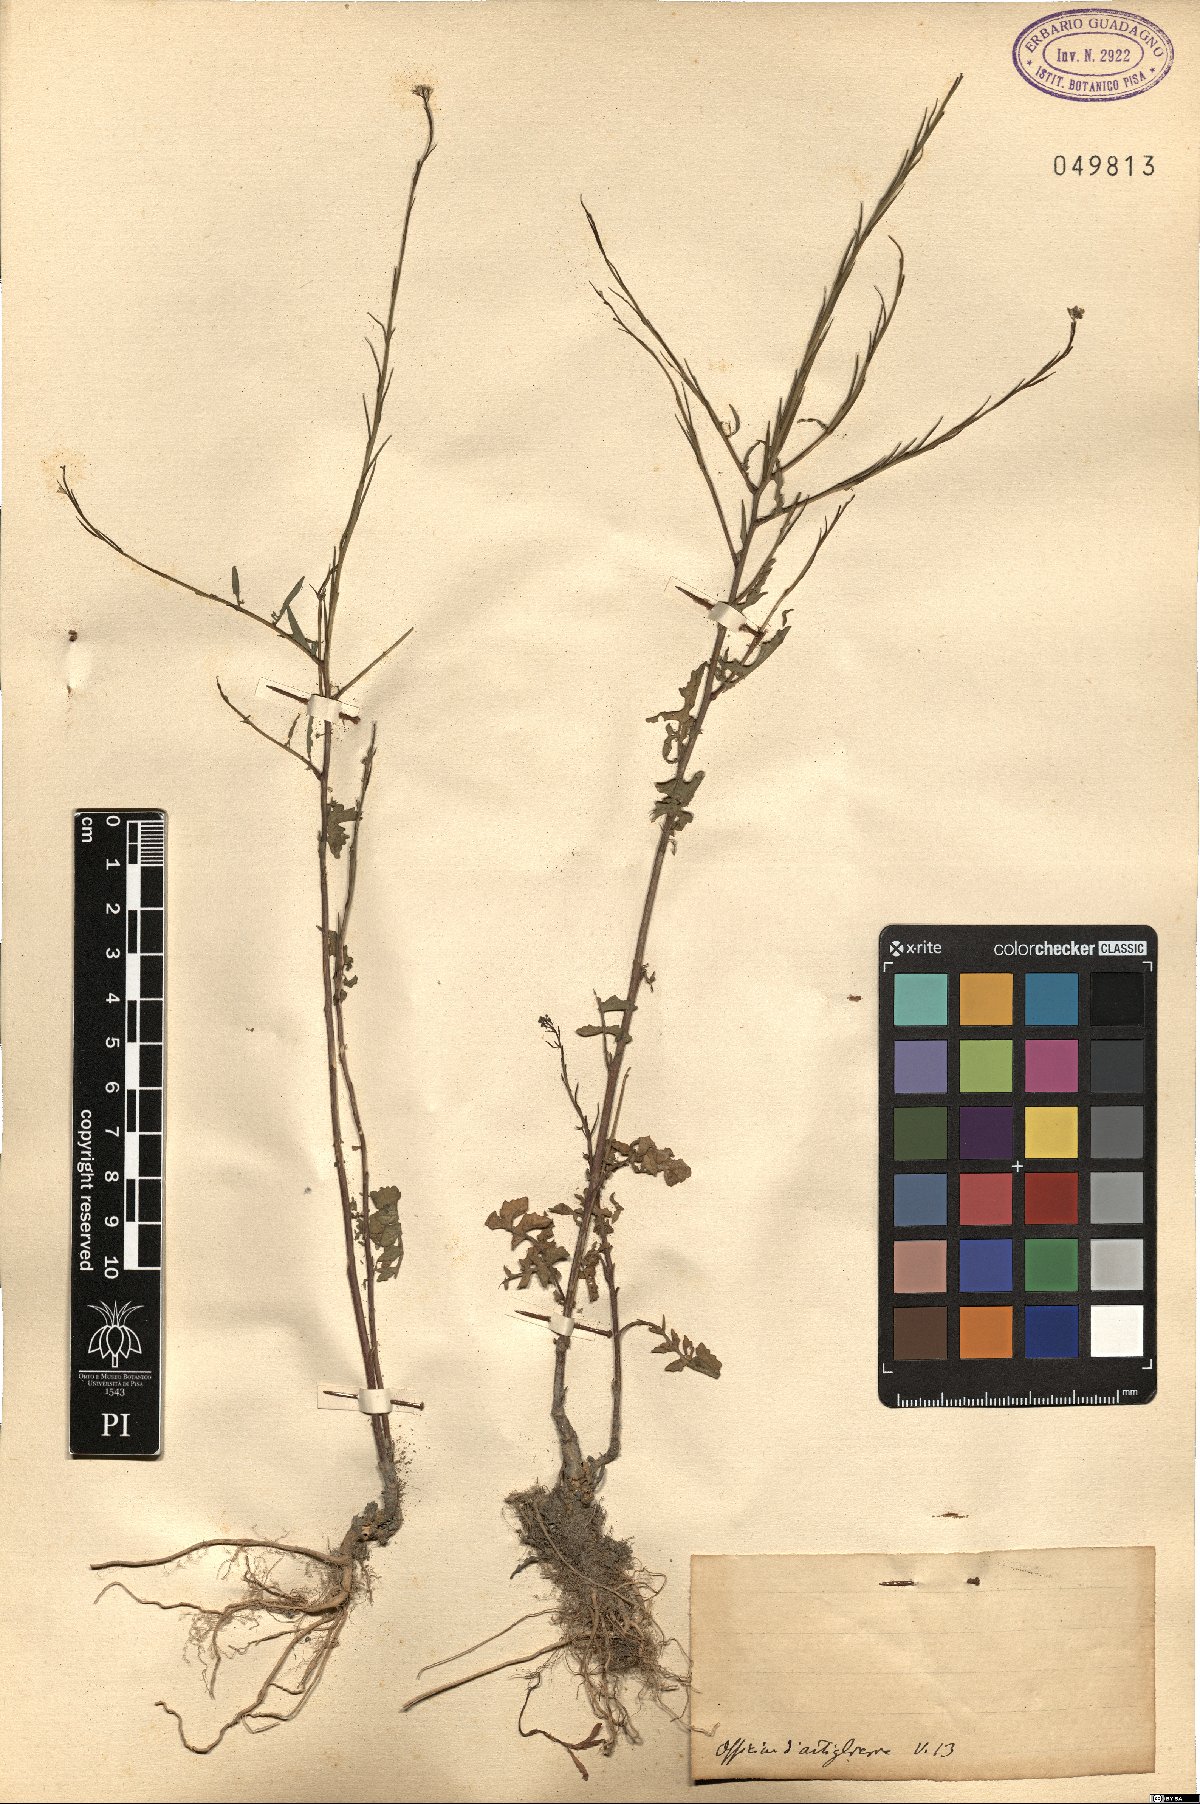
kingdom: Plantae
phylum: Tracheophyta
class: Magnoliopsida
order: Brassicales
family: Brassicaceae
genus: Sisymbrium
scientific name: Sisymbrium
